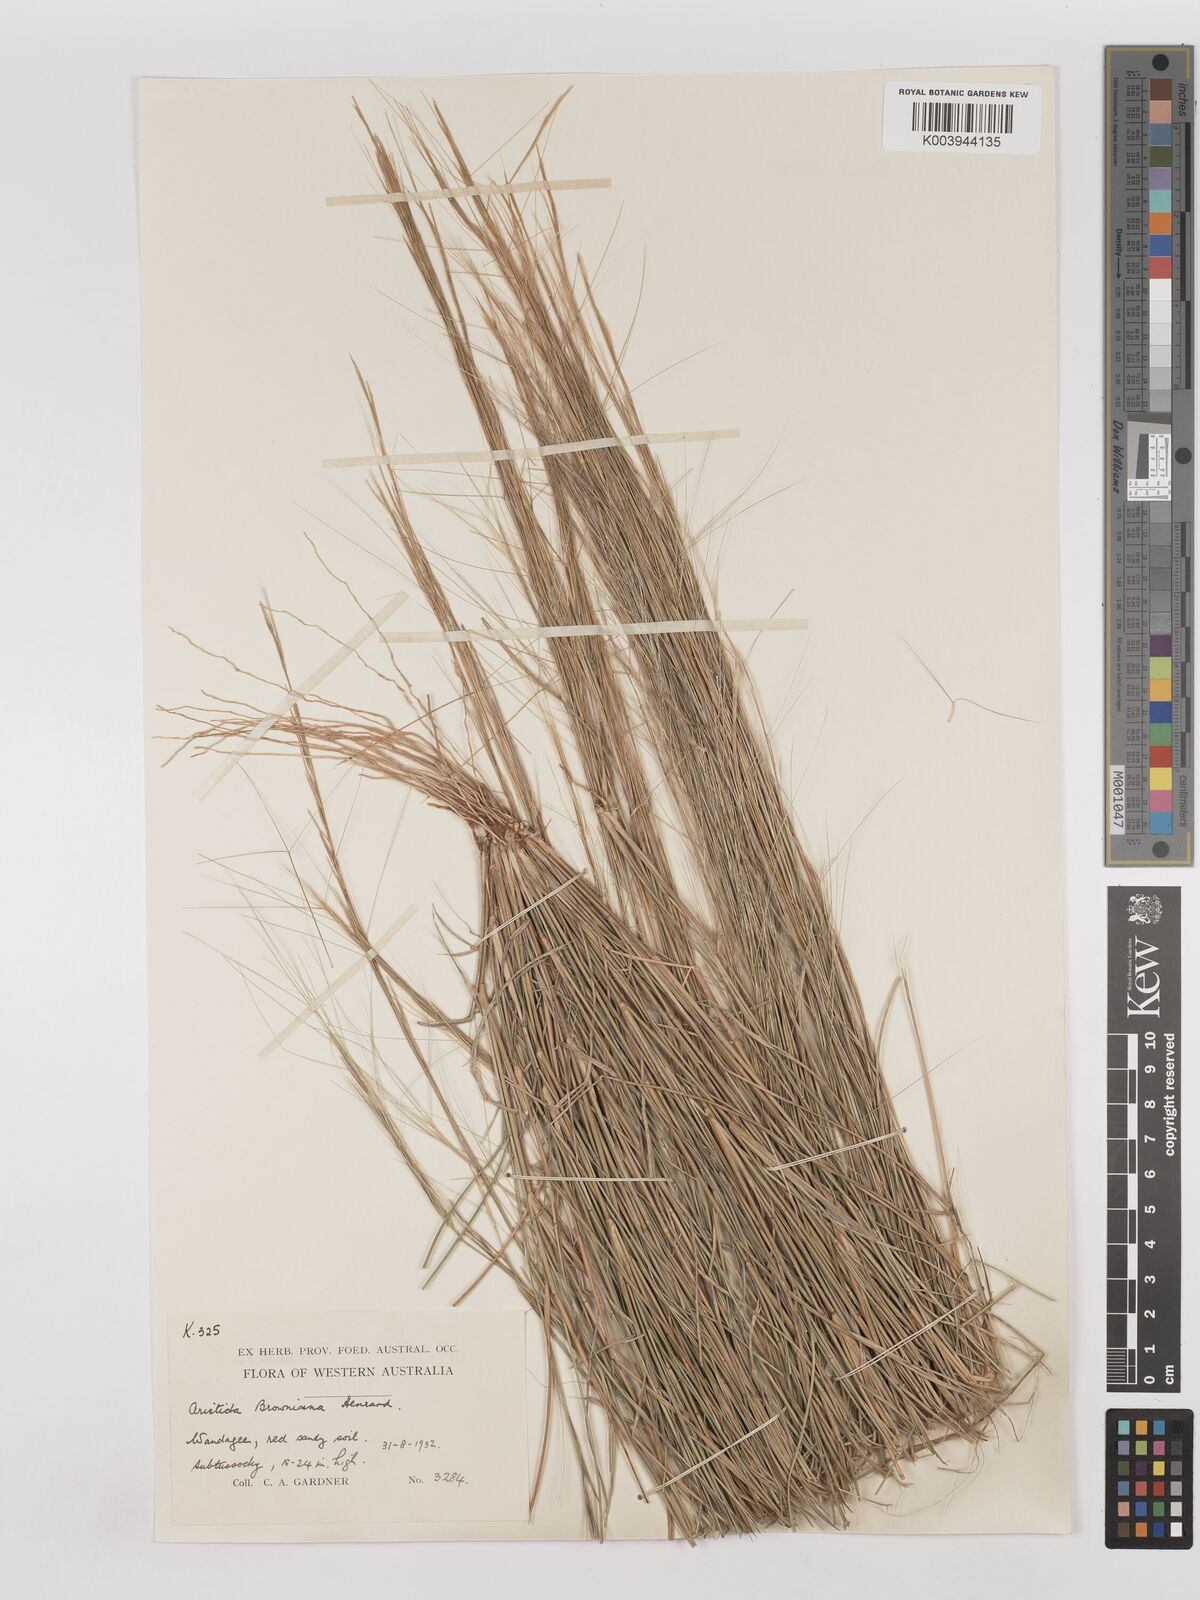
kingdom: Plantae
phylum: Tracheophyta
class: Liliopsida
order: Poales
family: Poaceae
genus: Aristida
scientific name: Aristida holathera
